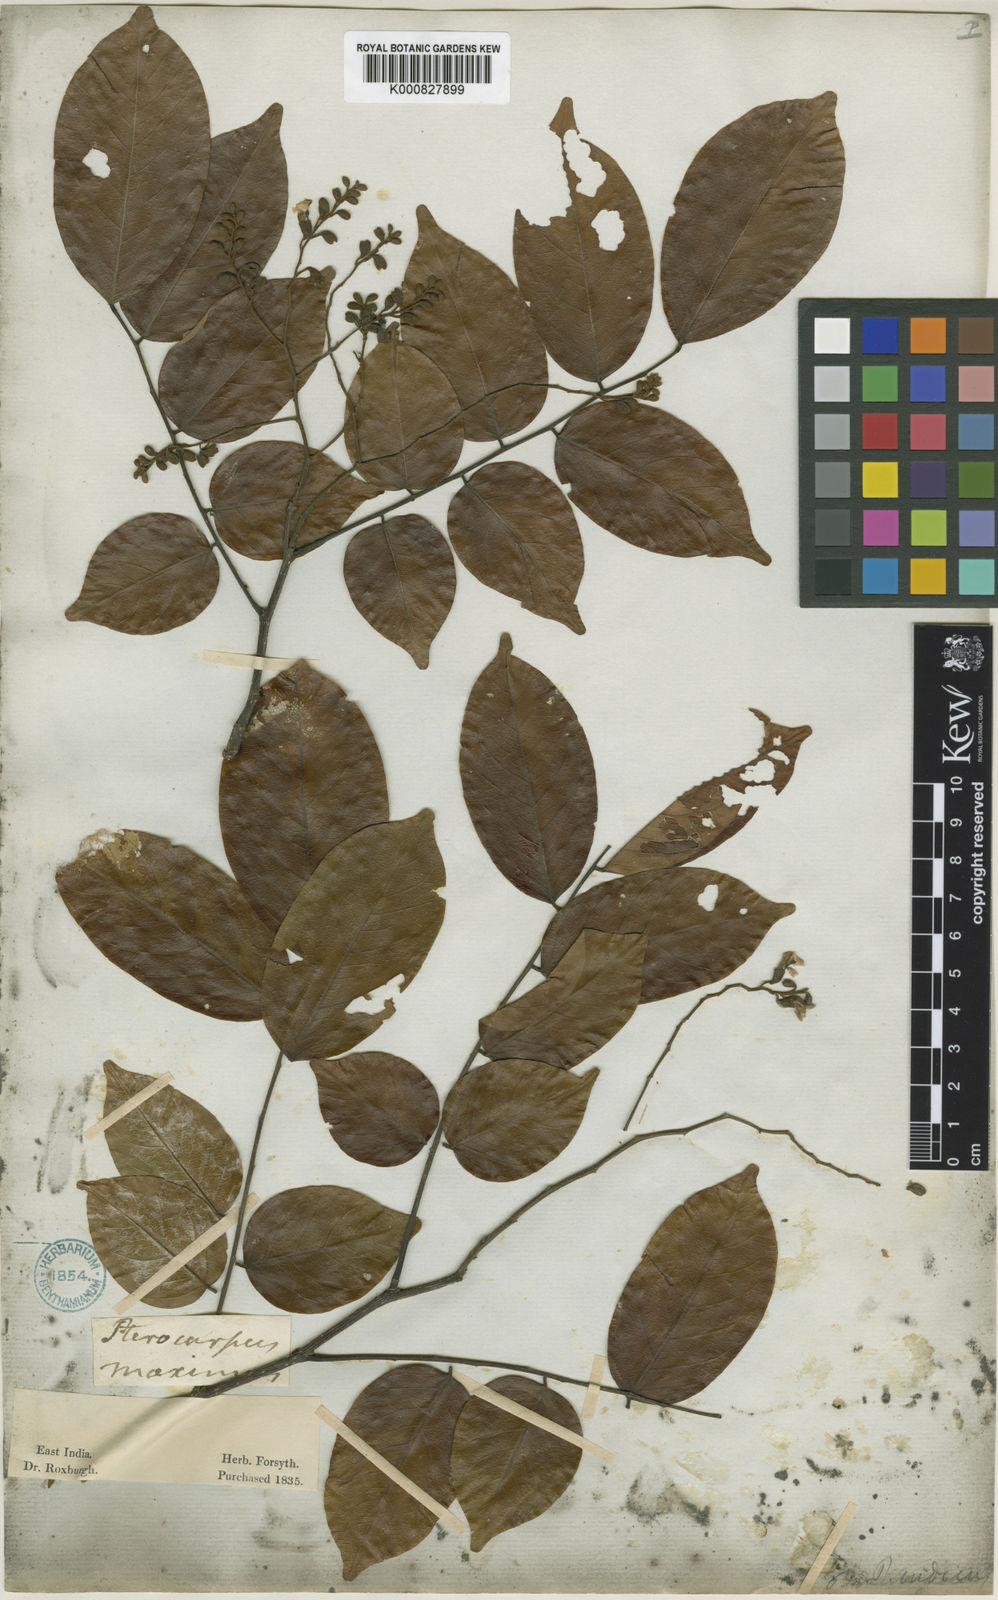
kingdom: Plantae
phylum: Tracheophyta
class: Magnoliopsida
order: Fabales
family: Fabaceae
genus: Pterocarpus
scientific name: Pterocarpus indicus
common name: Burmese rosewood
